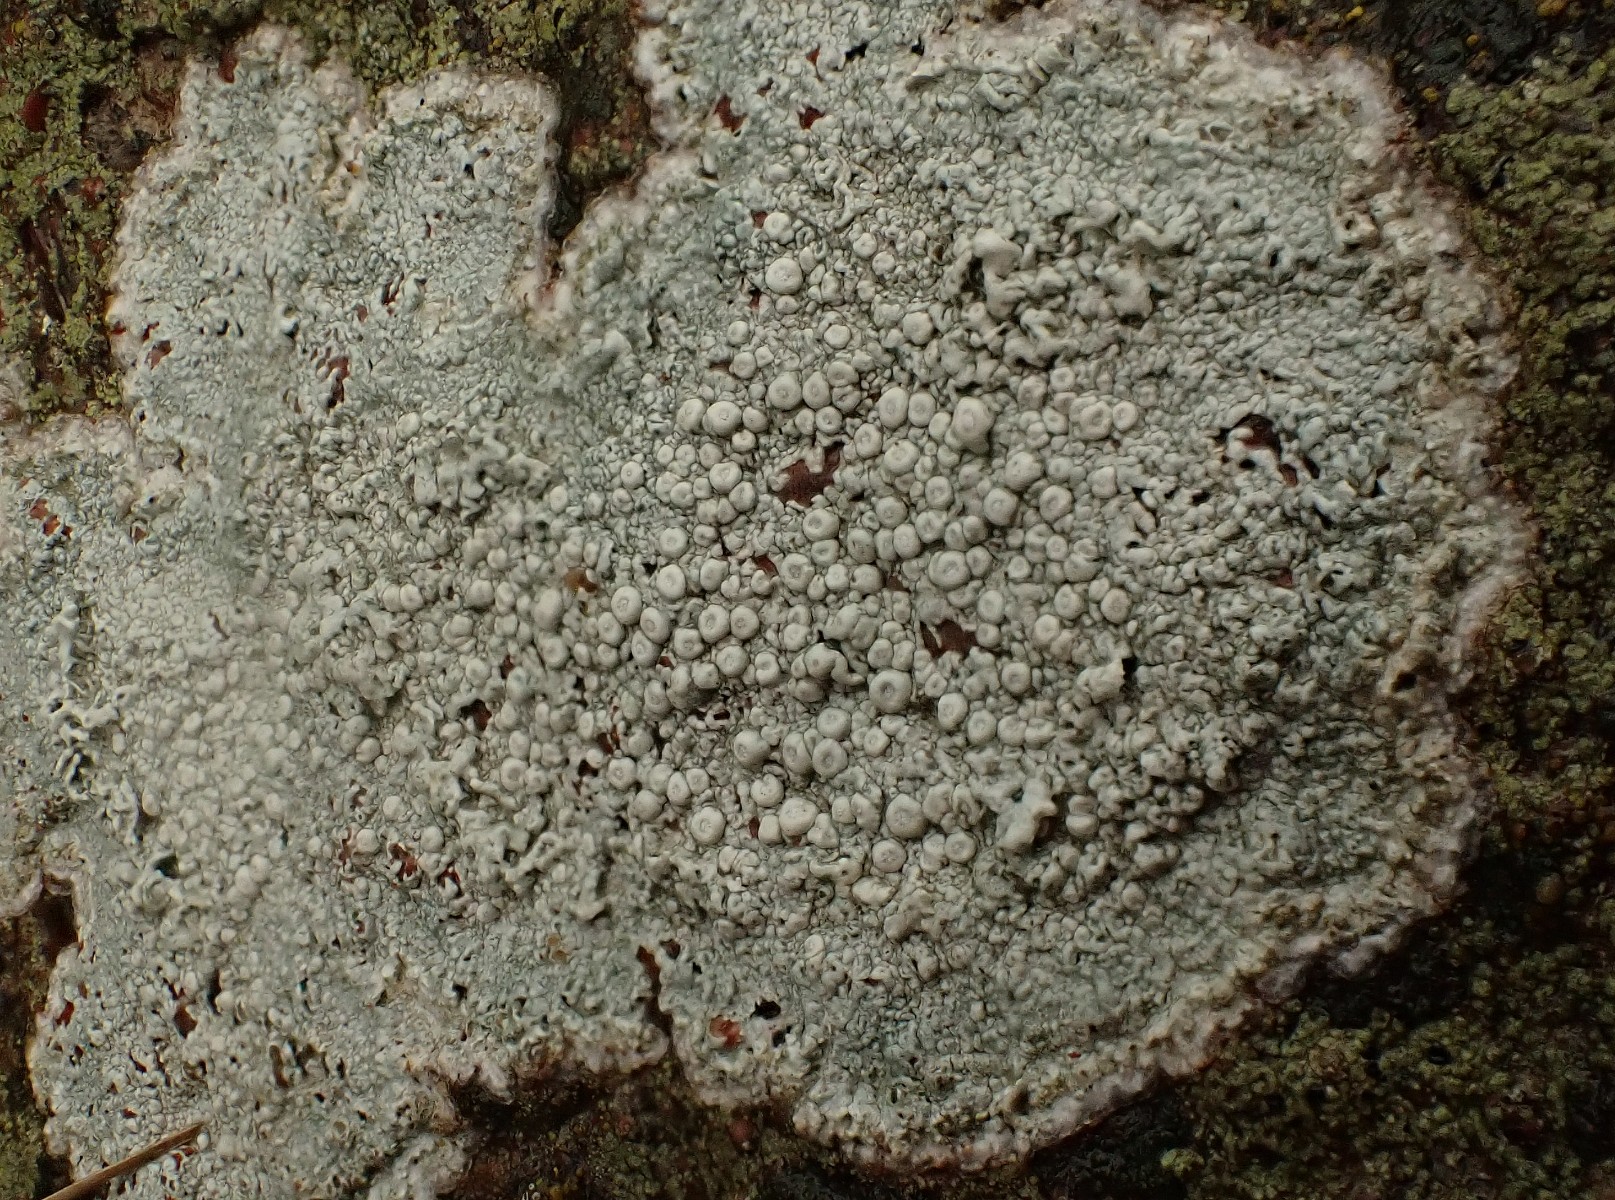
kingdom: Fungi
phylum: Ascomycota
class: Lecanoromycetes
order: Pertusariales
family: Ochrolechiaceae
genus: Ochrolechia
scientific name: Ochrolechia parella
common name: almindelig blegskivelav
